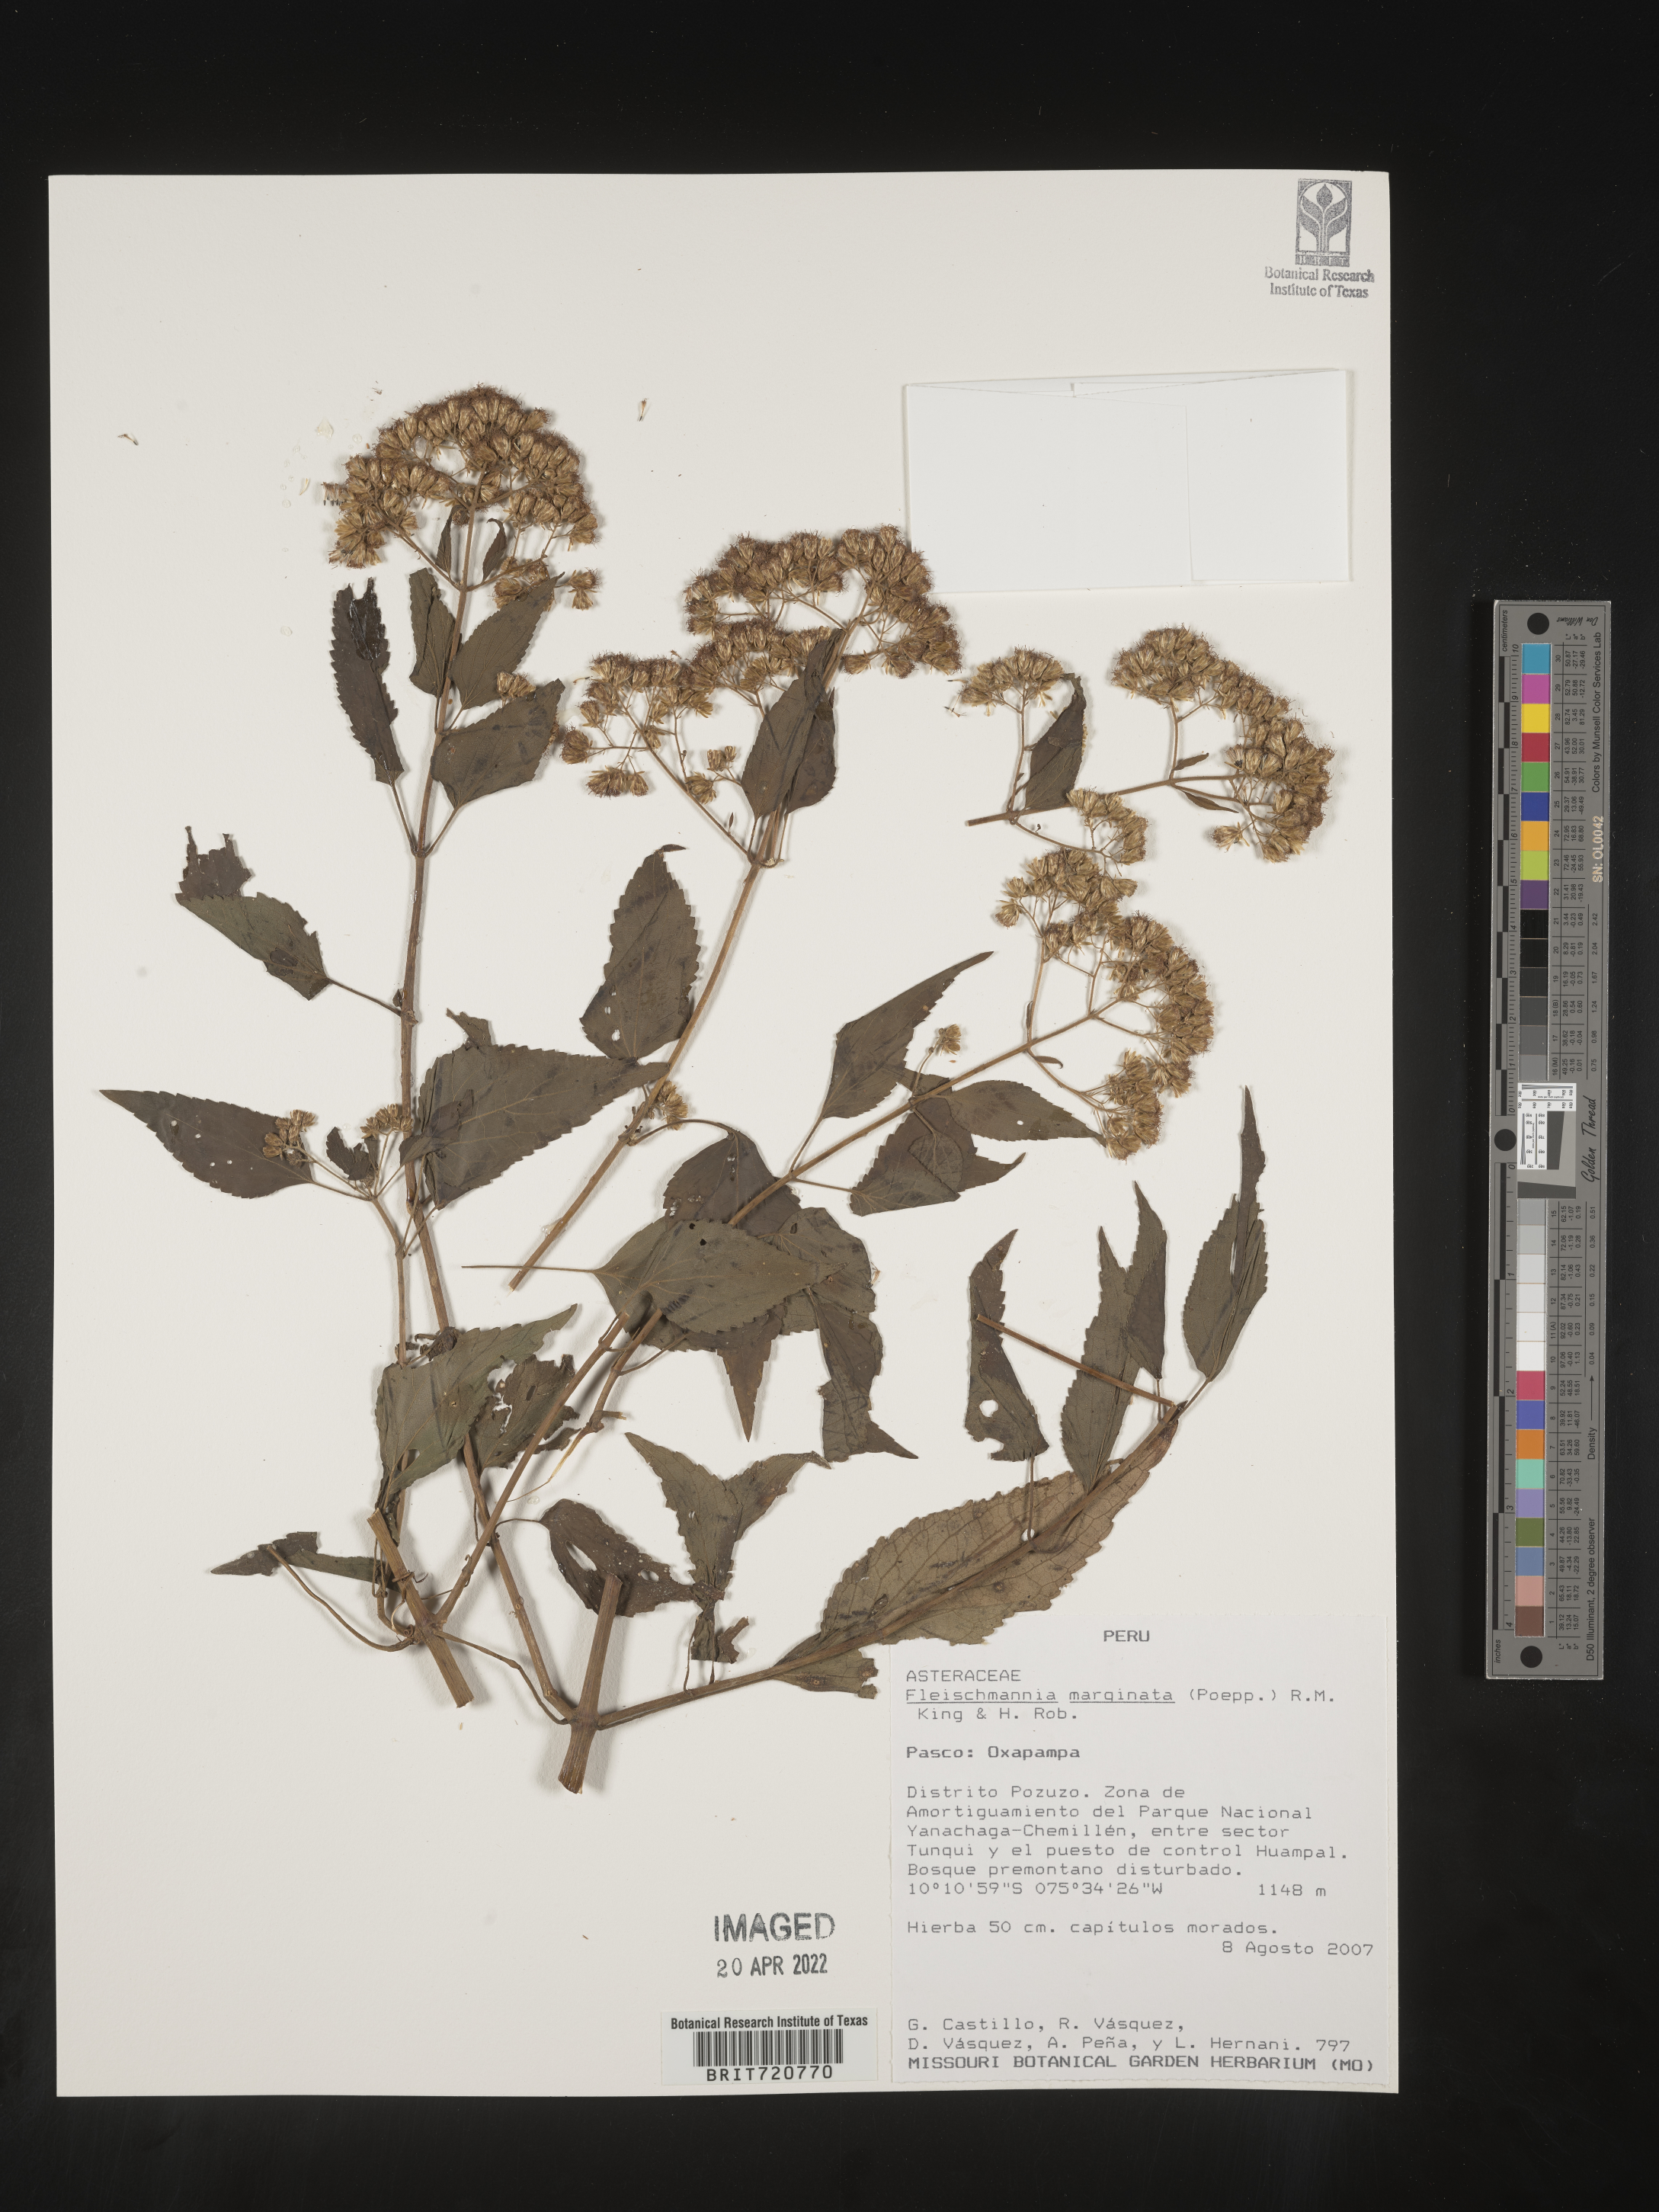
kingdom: Plantae
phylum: Tracheophyta
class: Magnoliopsida
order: Asterales
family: Asteraceae
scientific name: Asteraceae
